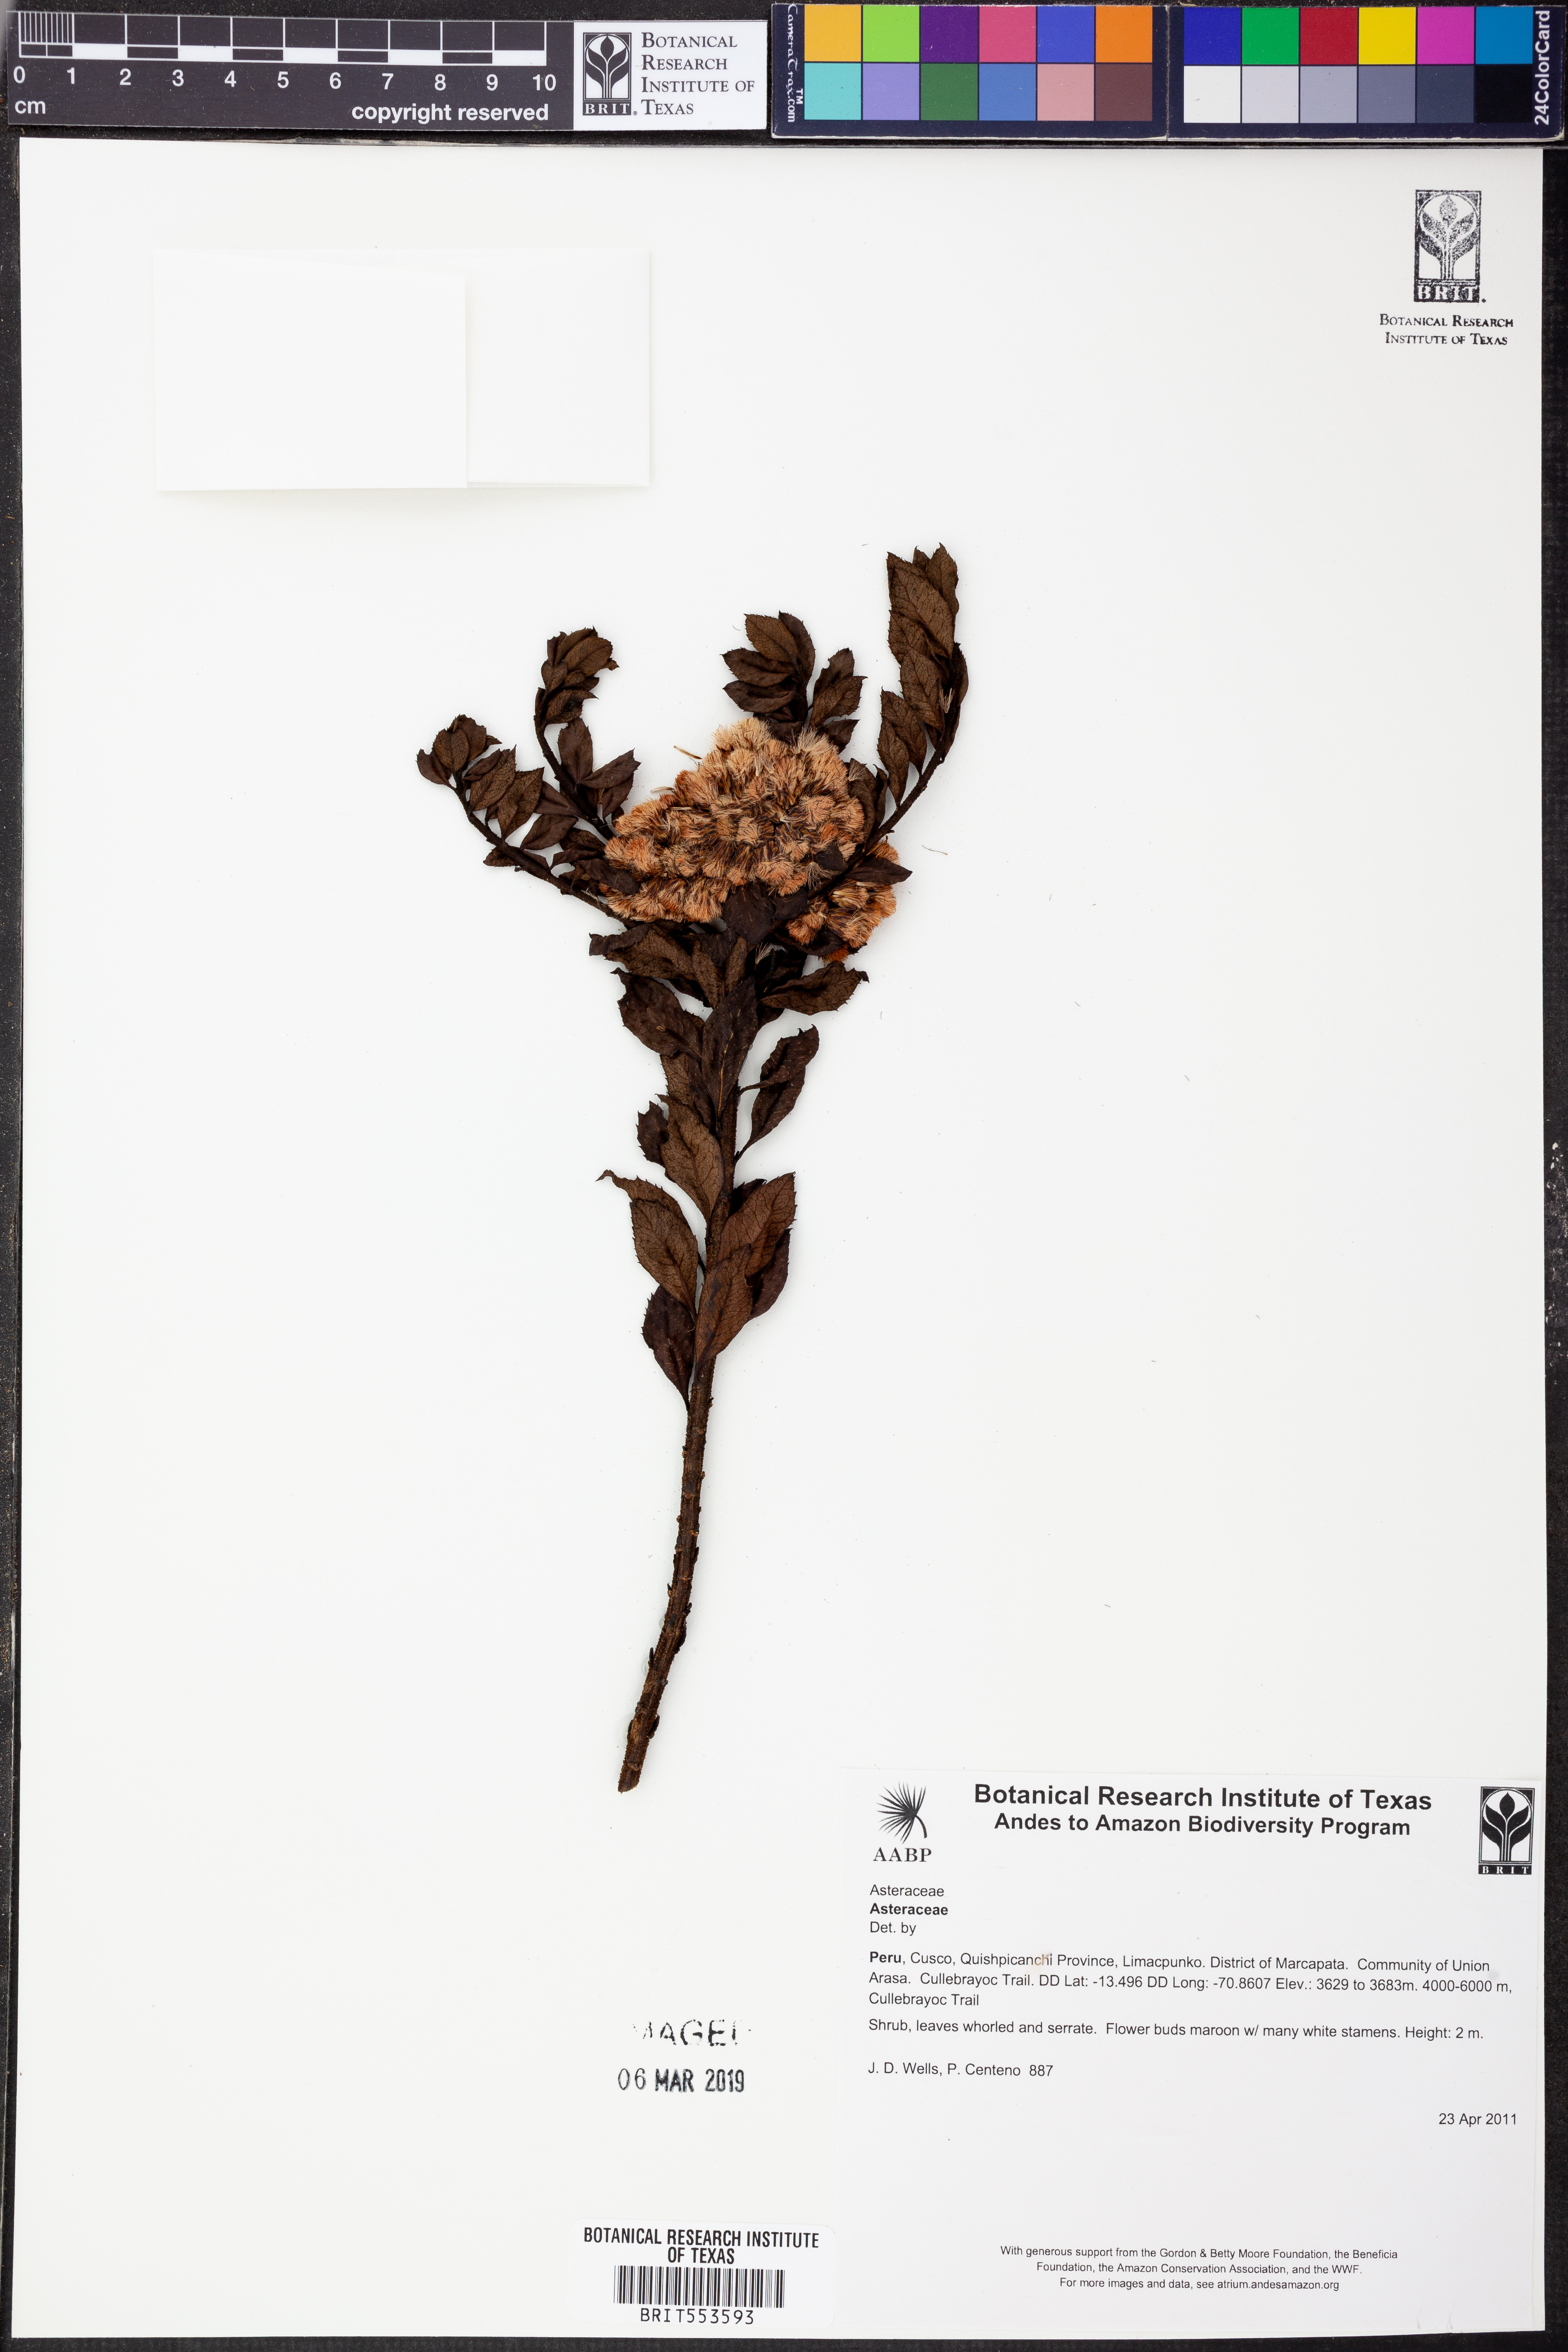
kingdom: Plantae
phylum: Tracheophyta
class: Magnoliopsida
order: Asterales
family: Asteraceae
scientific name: Asteraceae
